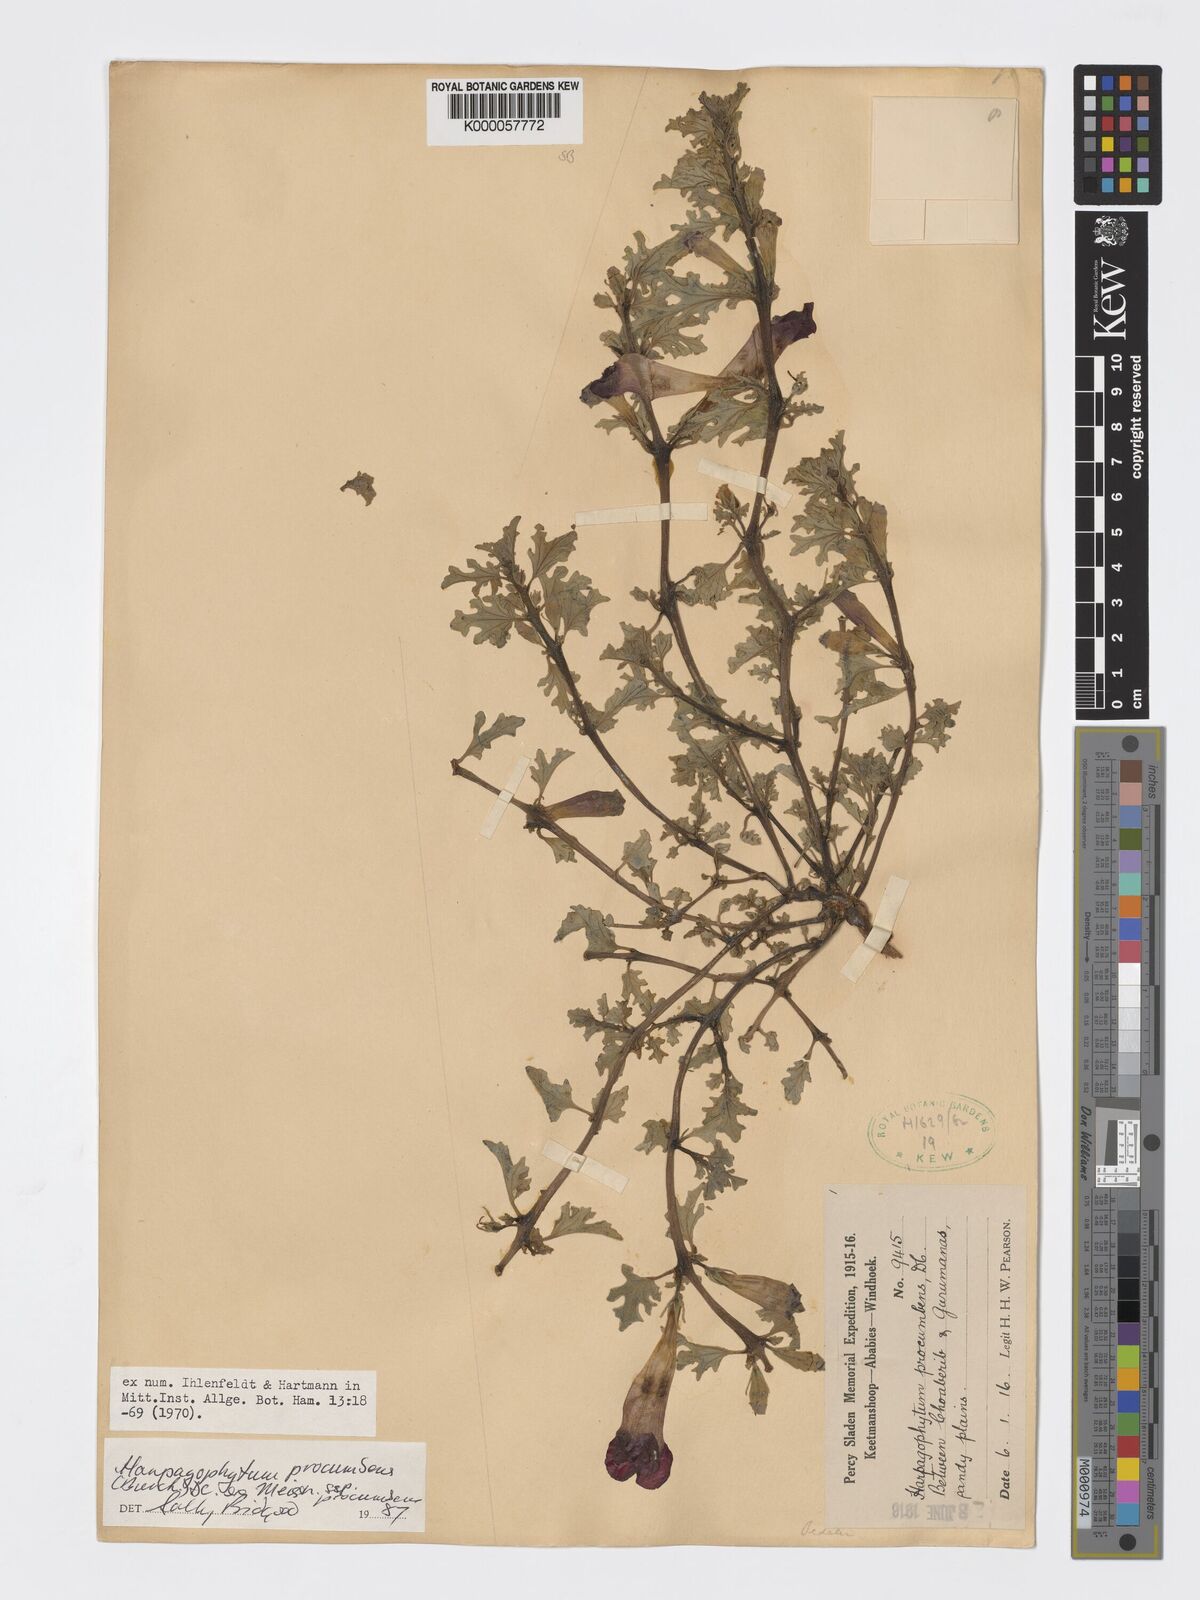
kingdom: Plantae
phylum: Tracheophyta
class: Magnoliopsida
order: Lamiales
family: Pedaliaceae
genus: Harpagophytum
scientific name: Harpagophytum procumbens
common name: Grappleplant
